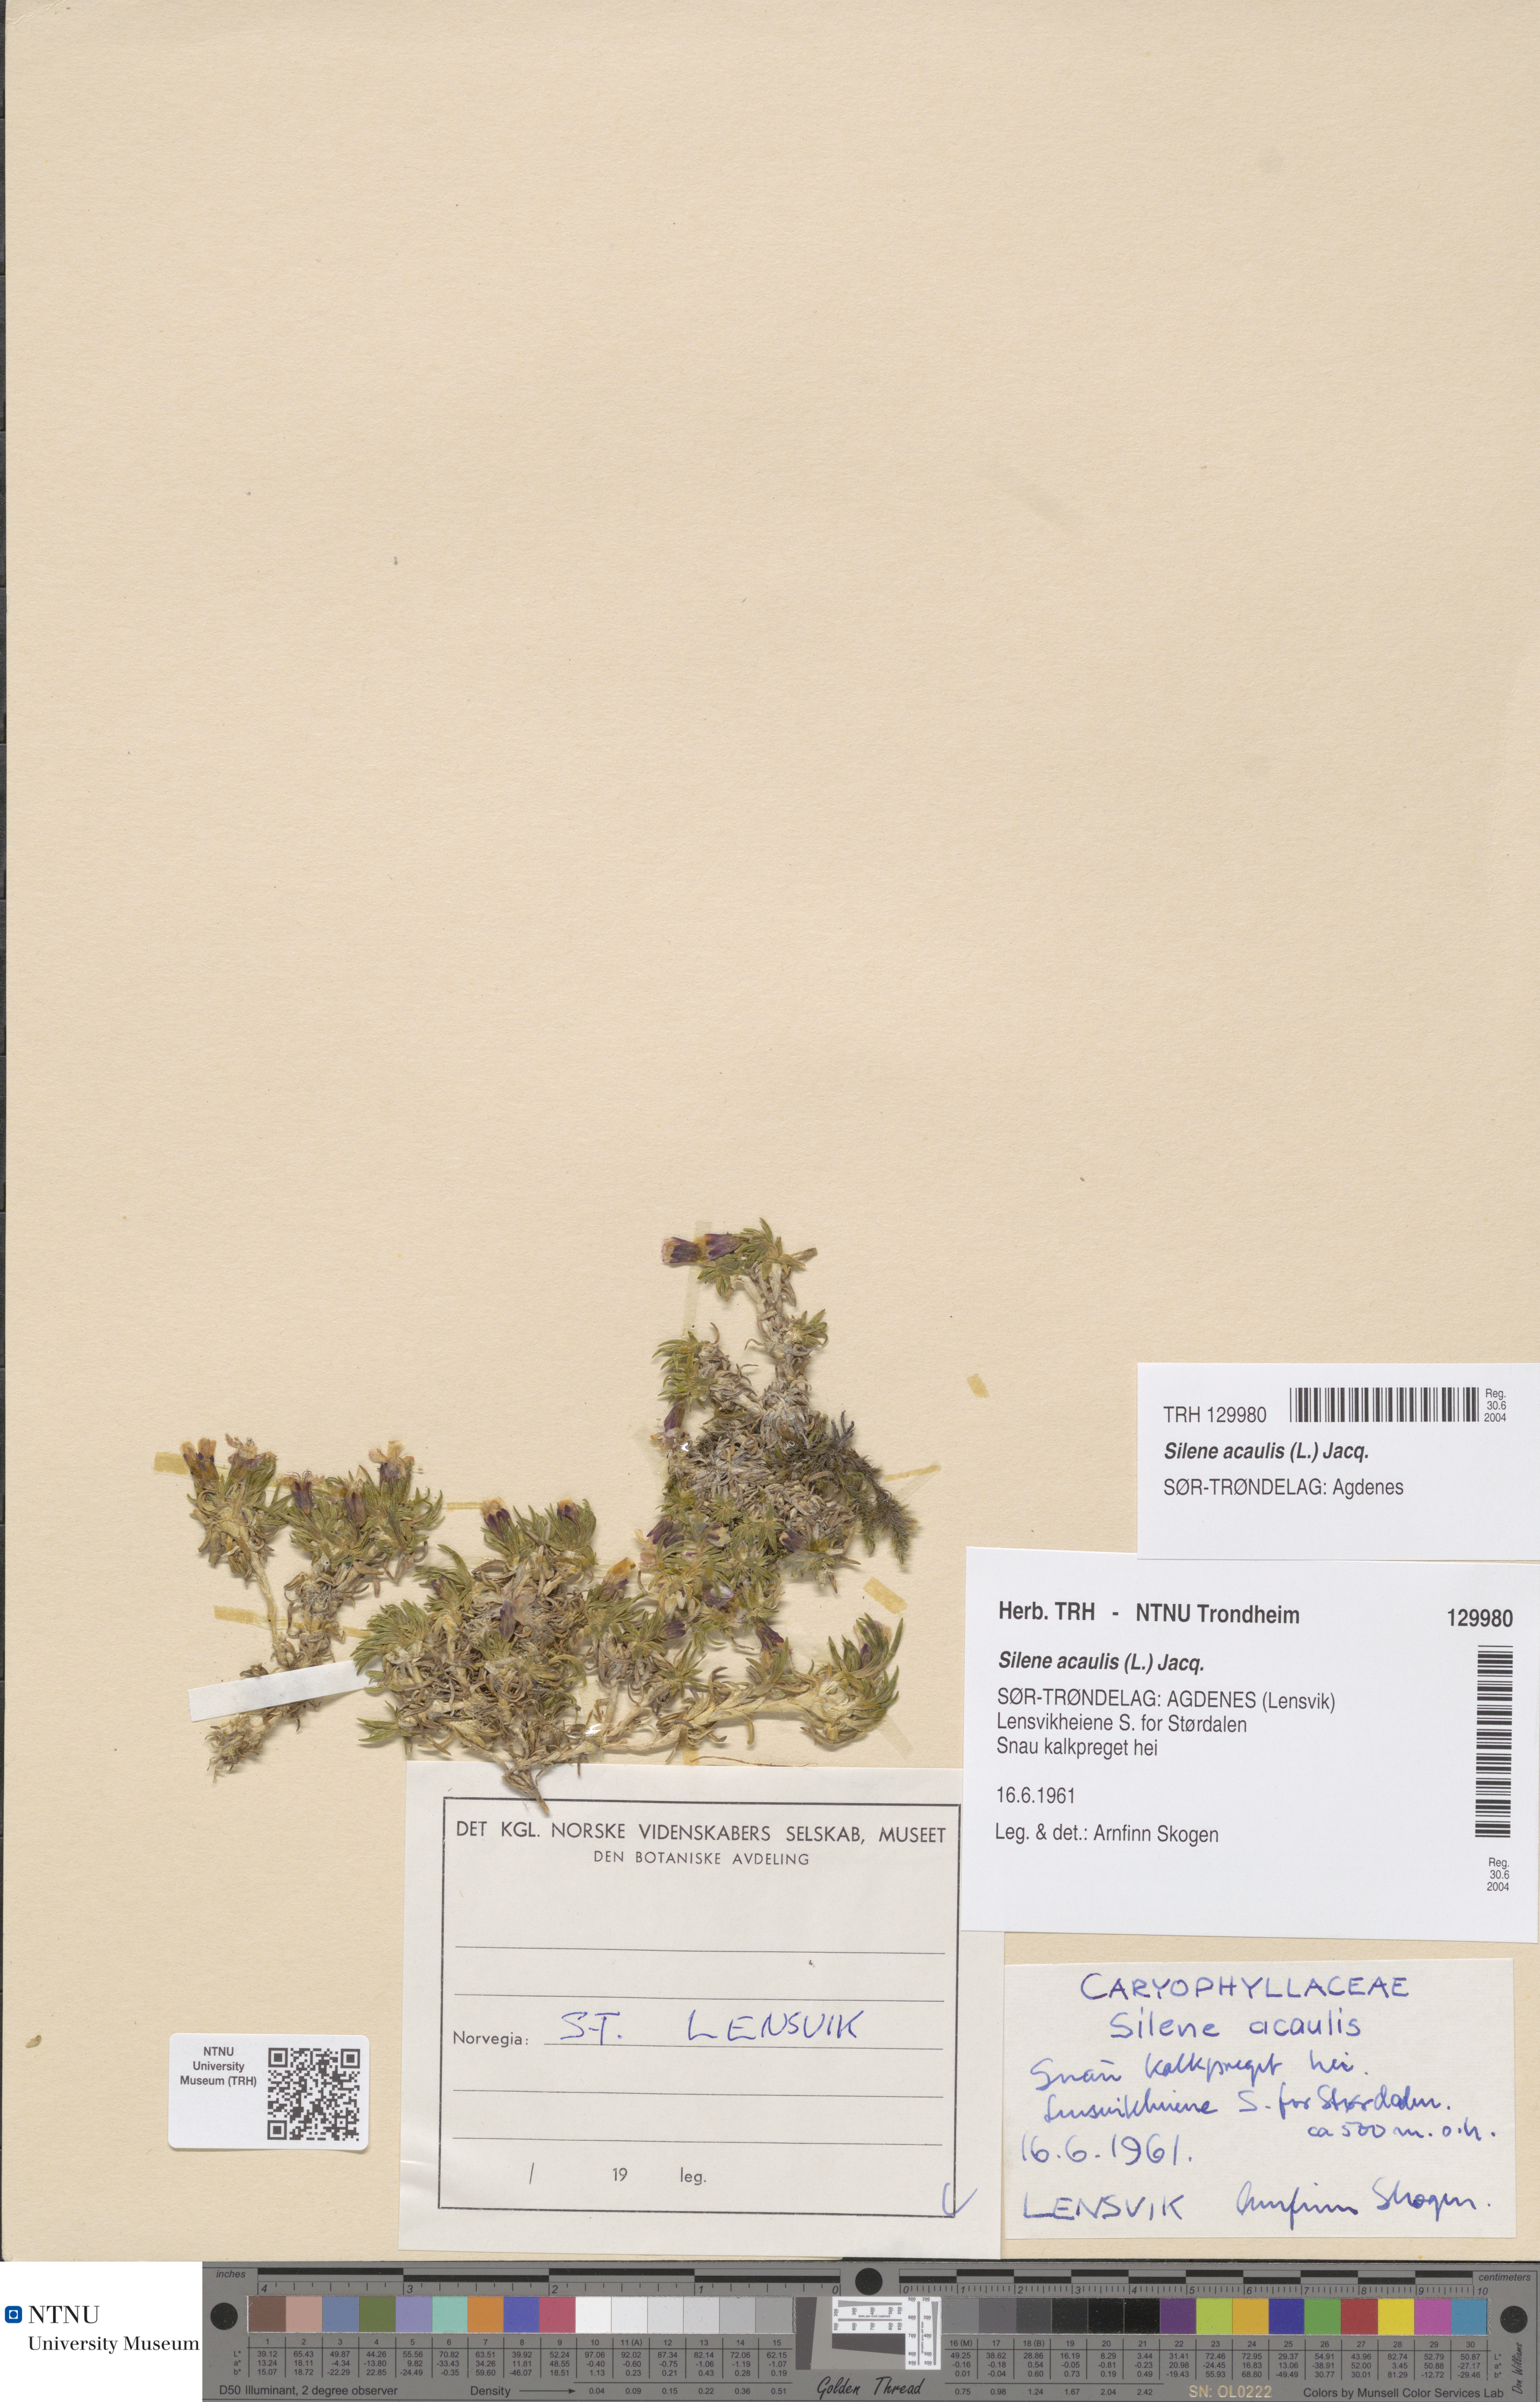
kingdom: Plantae
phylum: Tracheophyta
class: Magnoliopsida
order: Caryophyllales
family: Caryophyllaceae
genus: Silene
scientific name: Silene acaulis
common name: Moss campion
